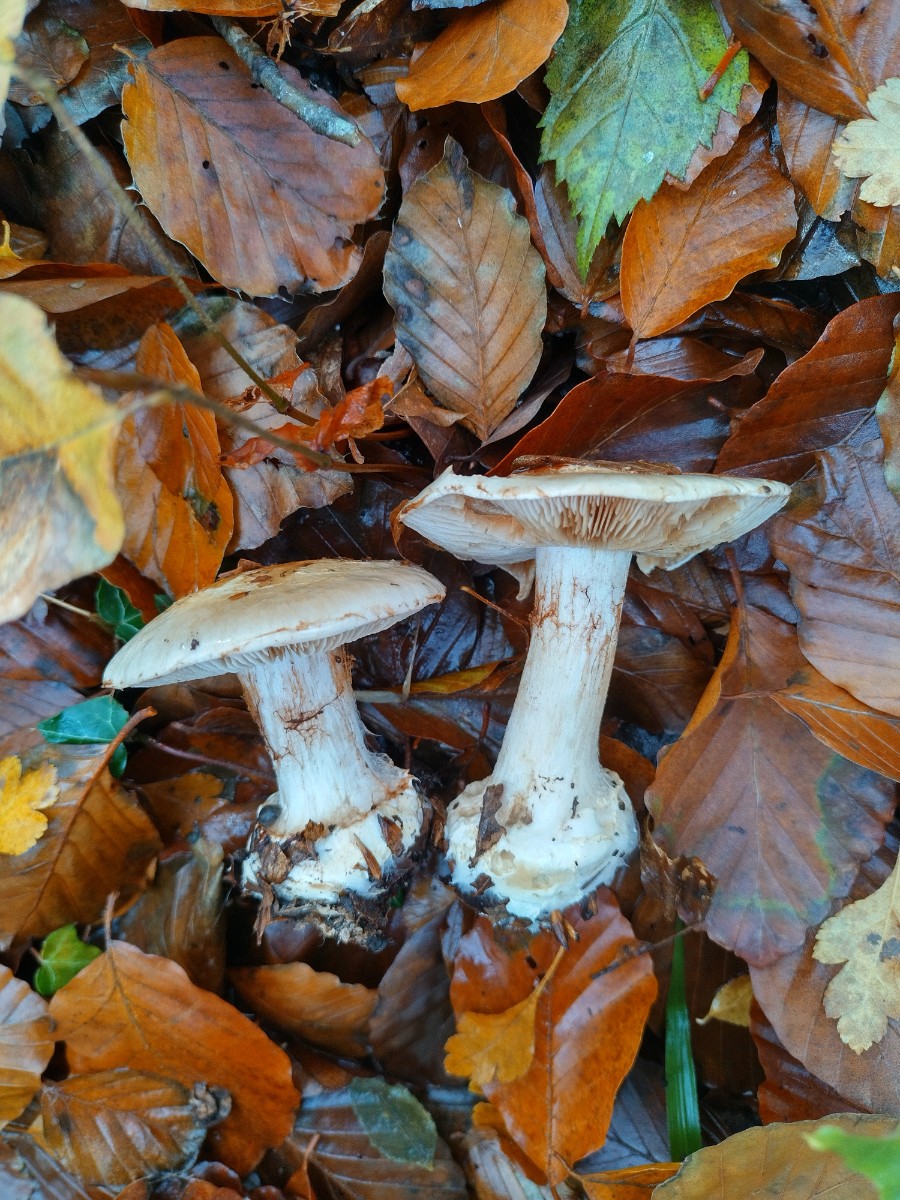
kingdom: Fungi
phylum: Basidiomycota
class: Agaricomycetes
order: Agaricales
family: Cortinariaceae
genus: Cortinarius
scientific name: Cortinarius anserinus
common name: bøge-slørhat
